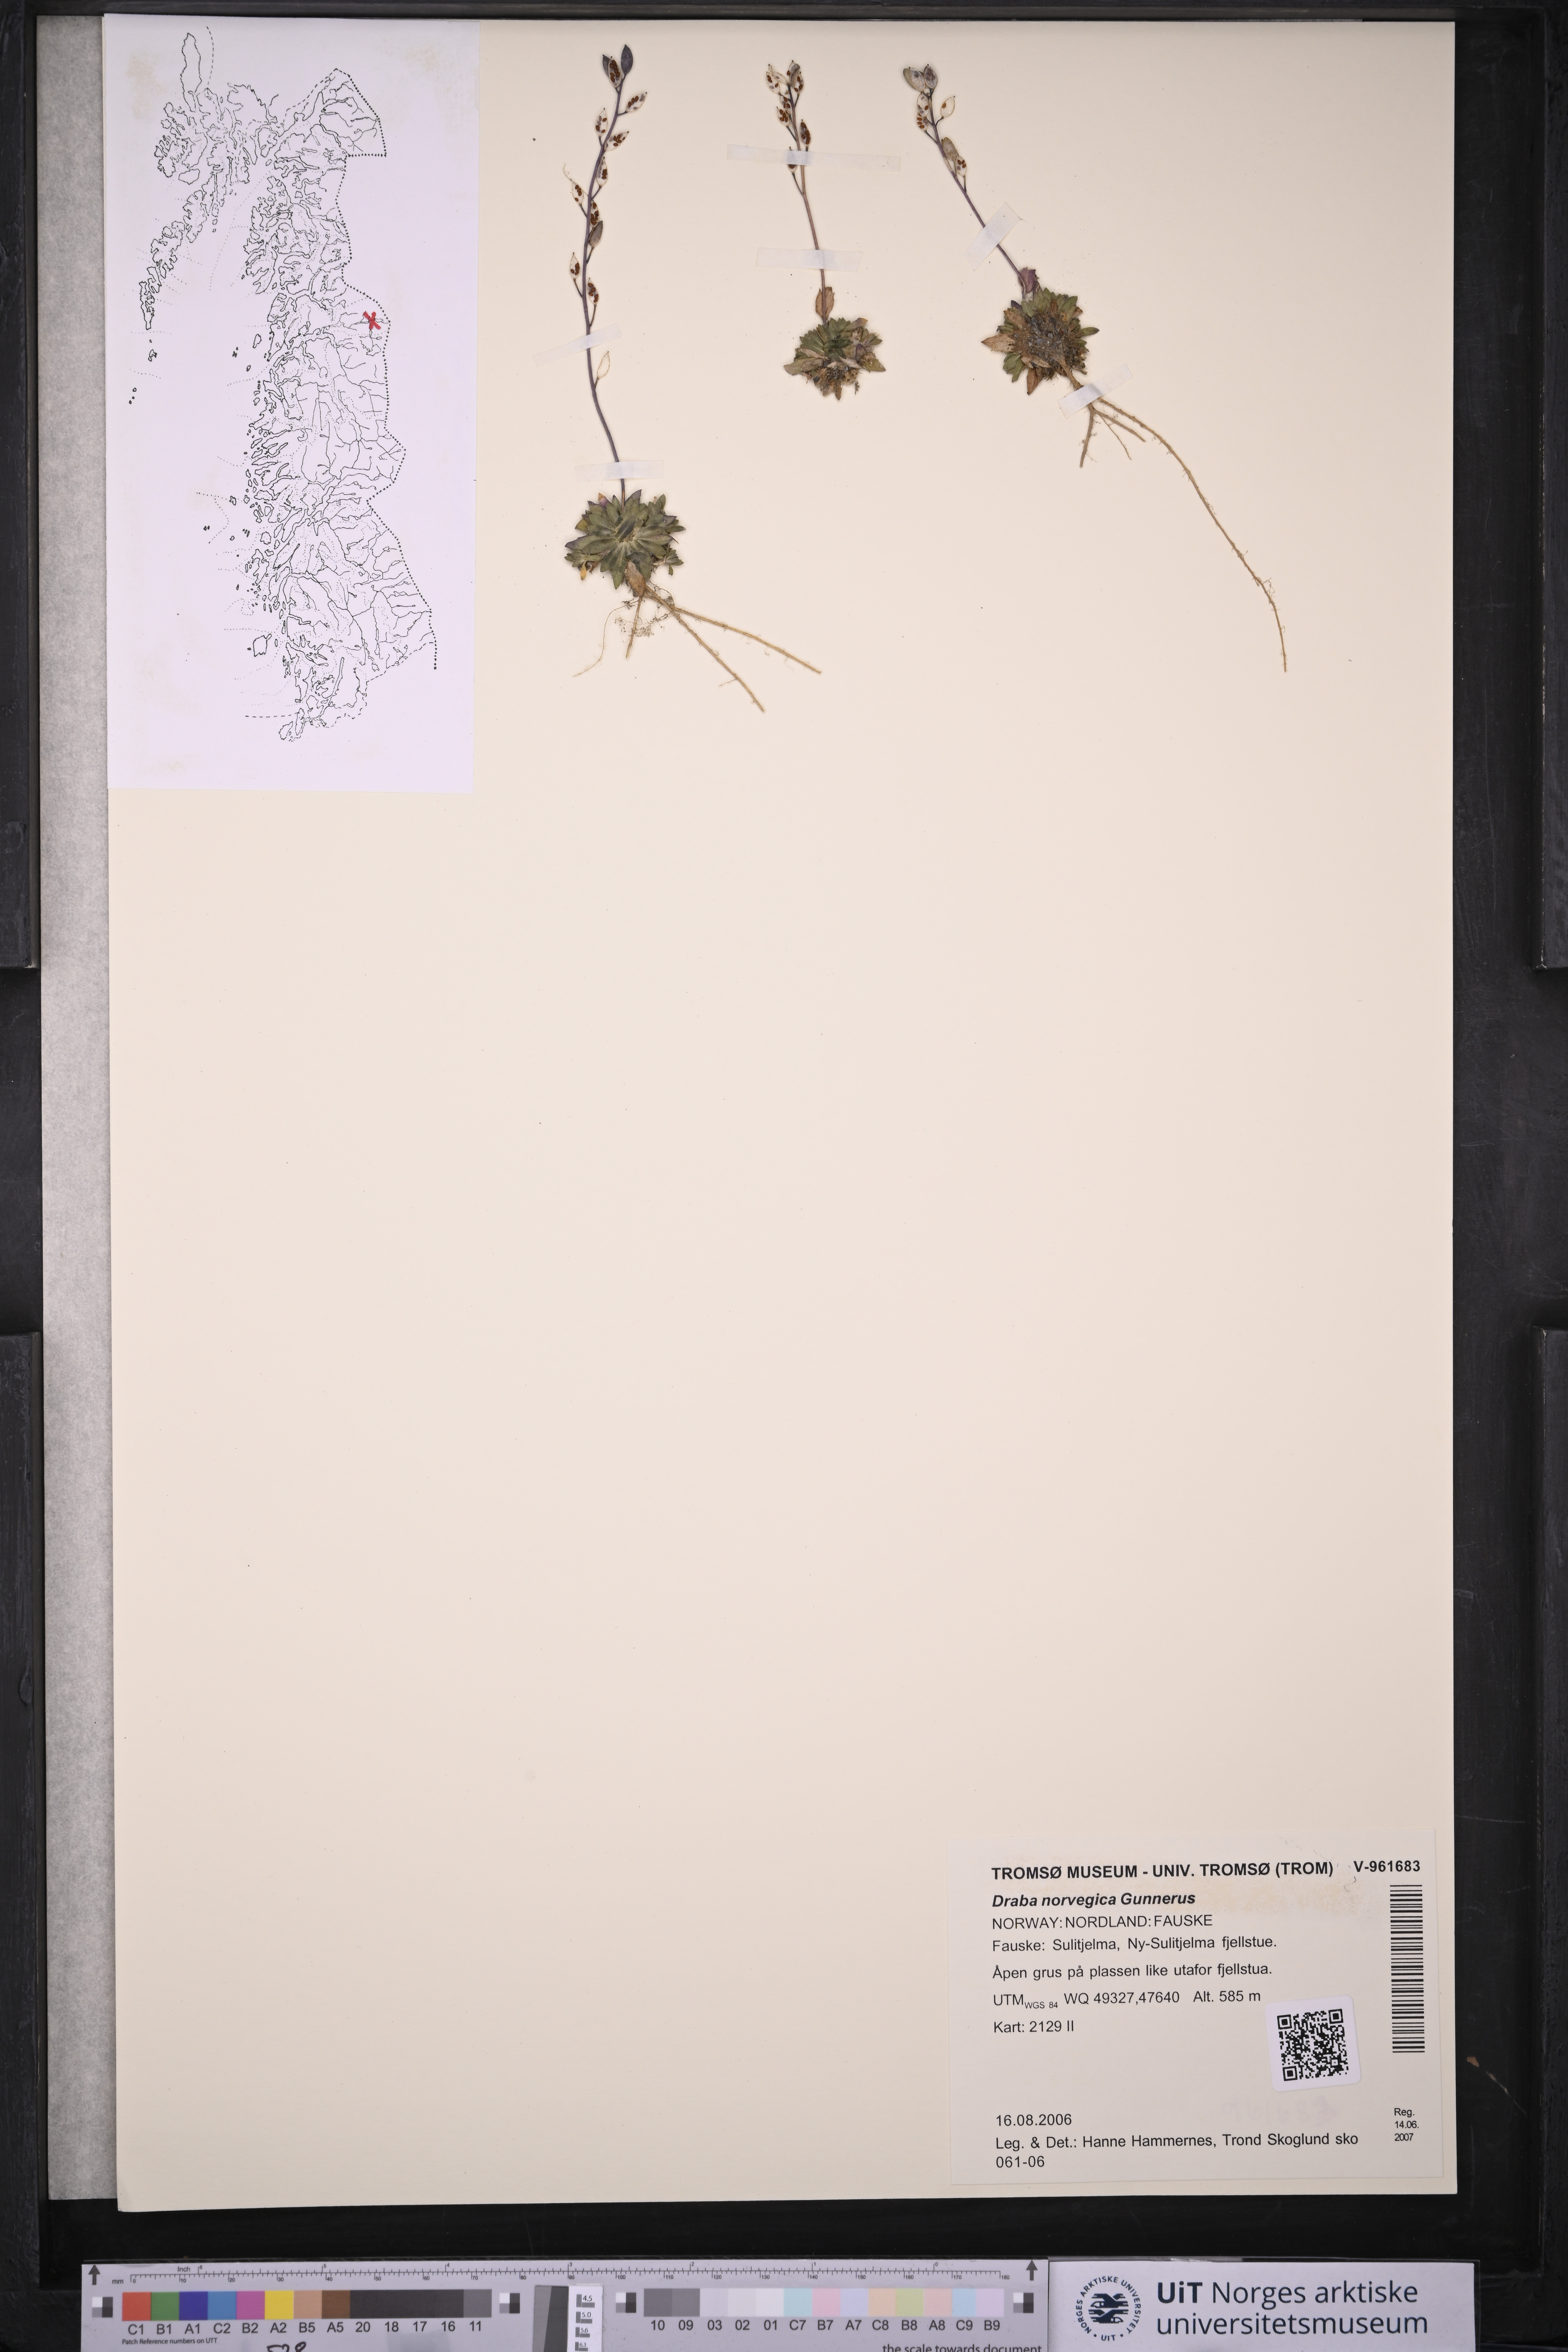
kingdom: Plantae
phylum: Tracheophyta
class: Magnoliopsida
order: Brassicales
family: Brassicaceae
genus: Draba
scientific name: Draba norvegica
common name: Rock whitlowgrass
